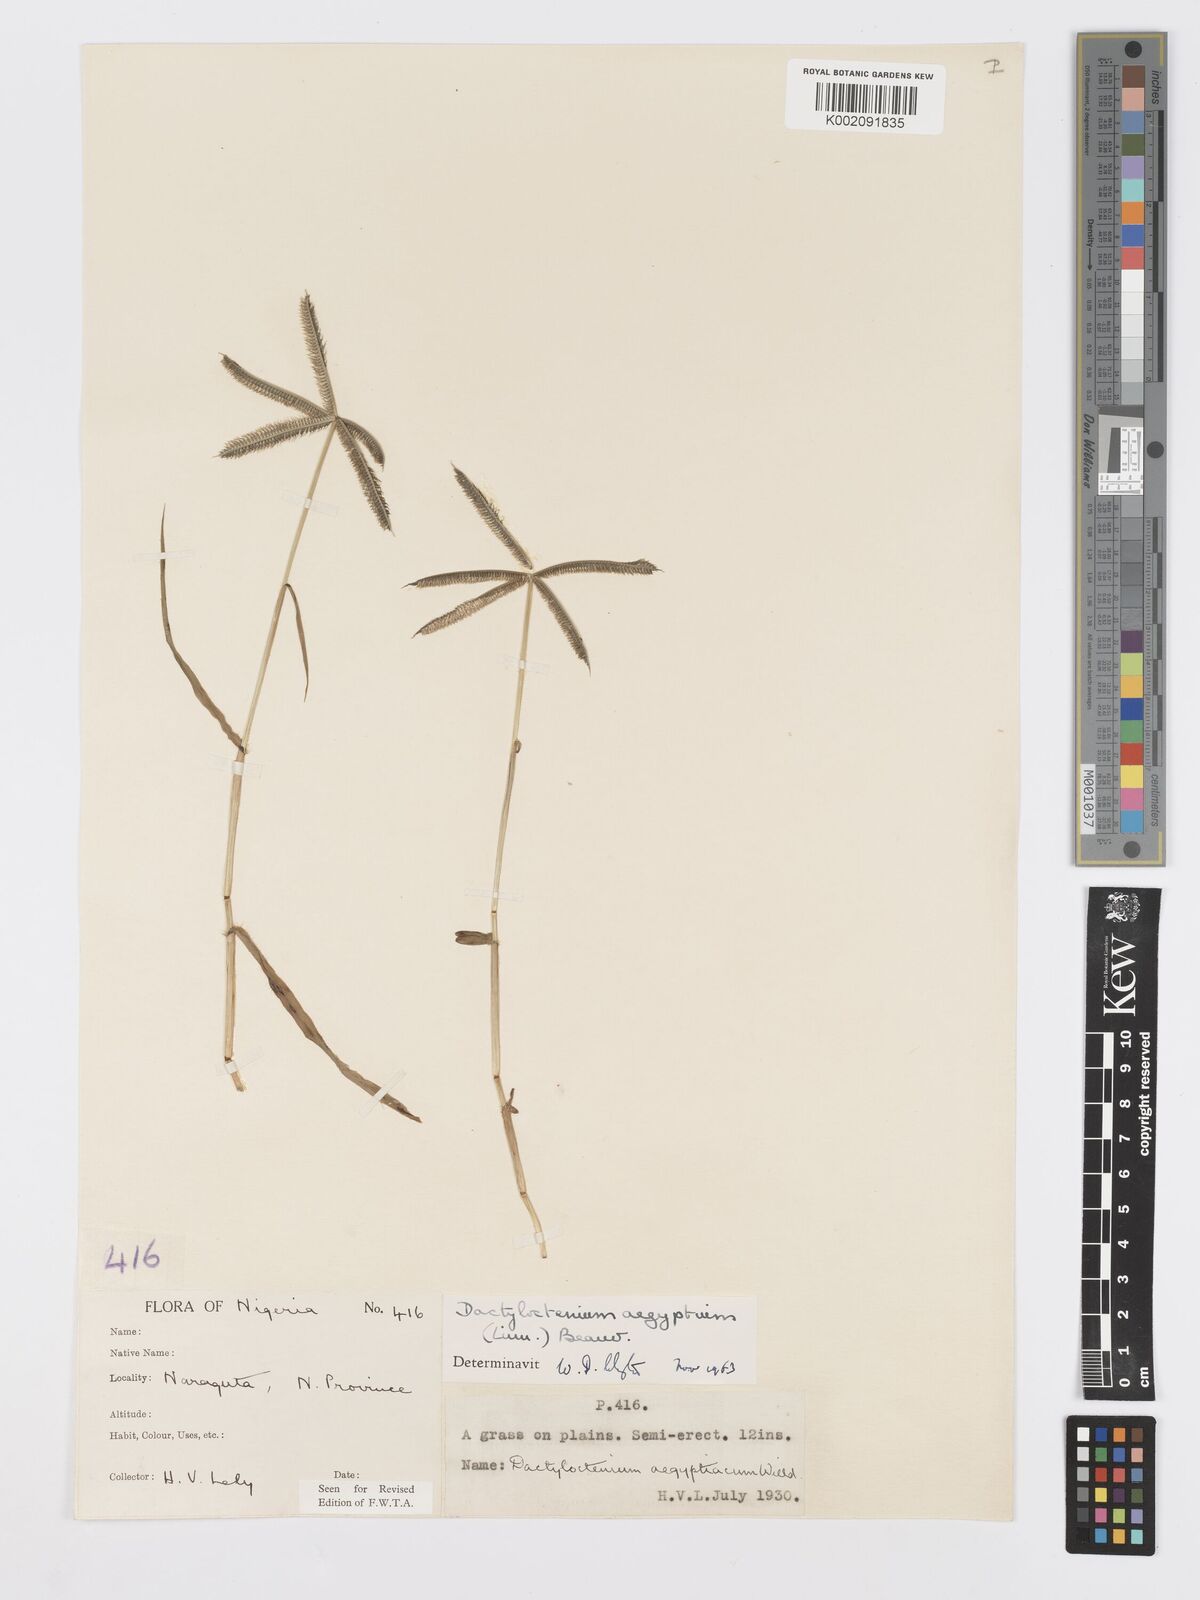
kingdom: Plantae
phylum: Tracheophyta
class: Liliopsida
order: Poales
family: Poaceae
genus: Dactyloctenium
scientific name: Dactyloctenium aegyptium
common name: Egyptian grass
